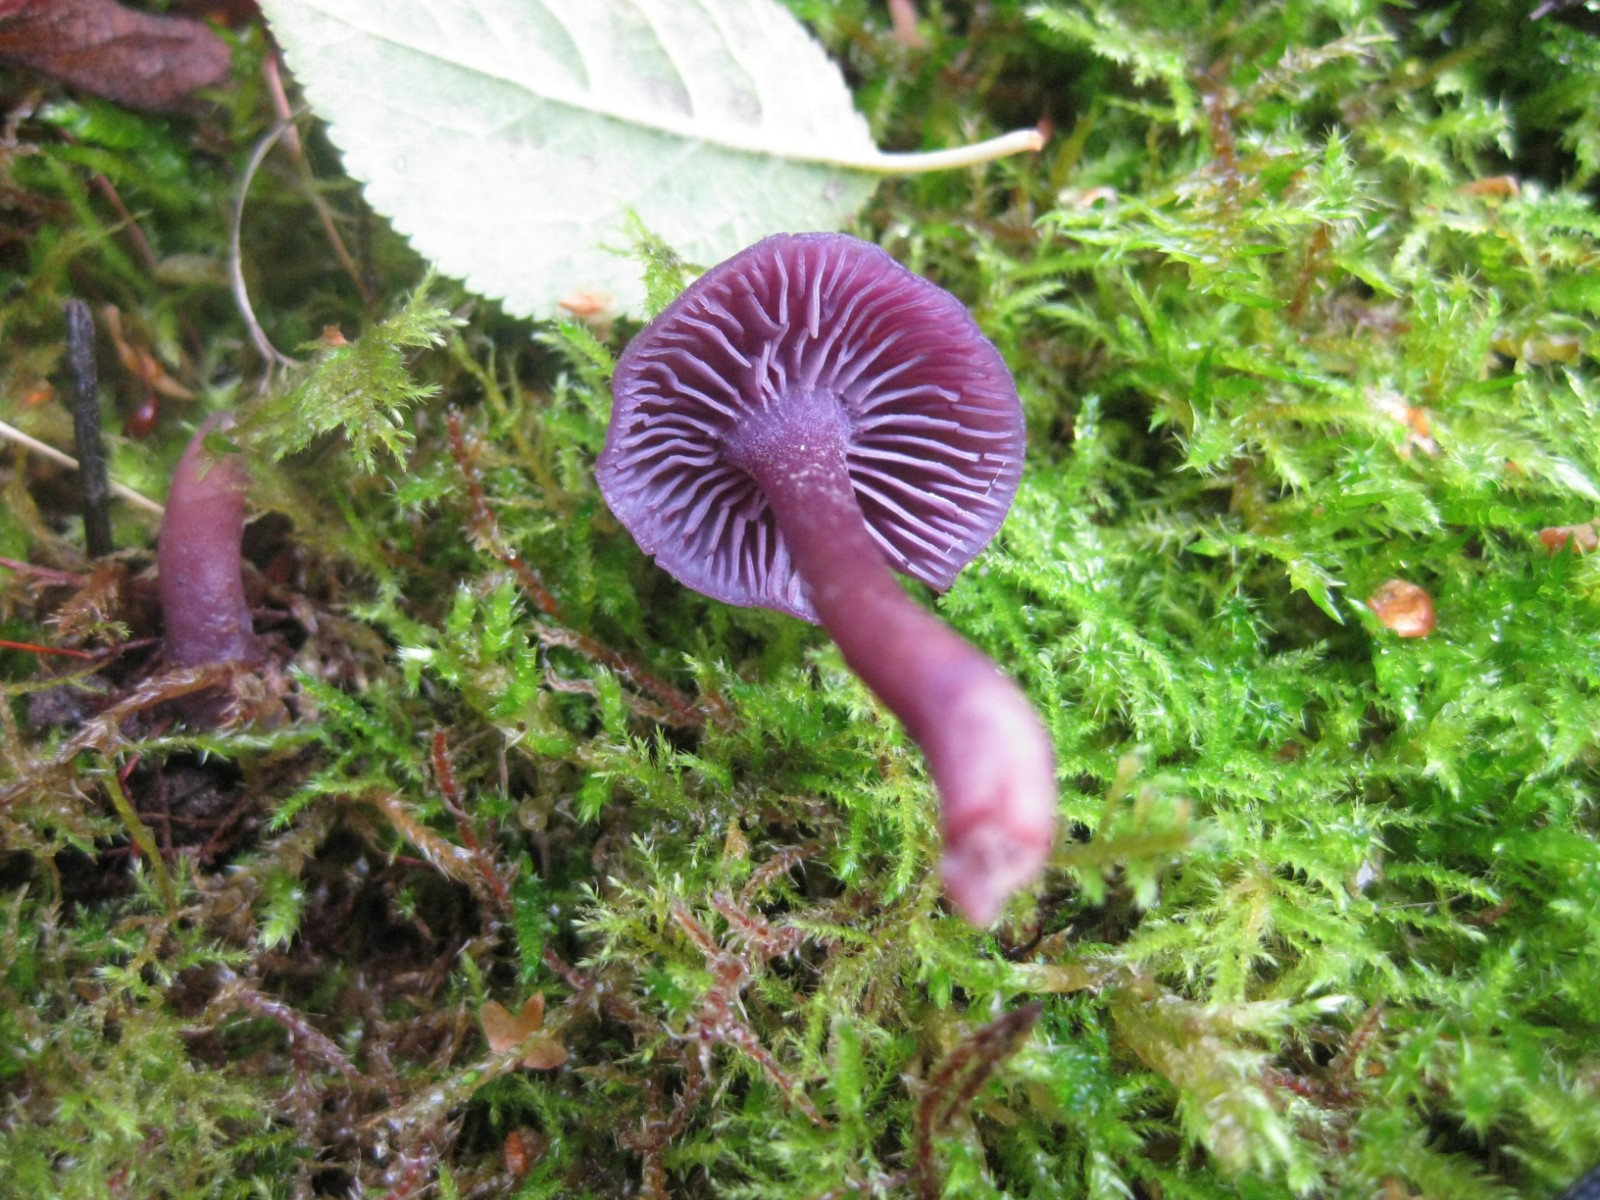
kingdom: Fungi
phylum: Basidiomycota
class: Agaricomycetes
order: Agaricales
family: Hydnangiaceae
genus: Laccaria
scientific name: Laccaria amethystina
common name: violet ametysthat
